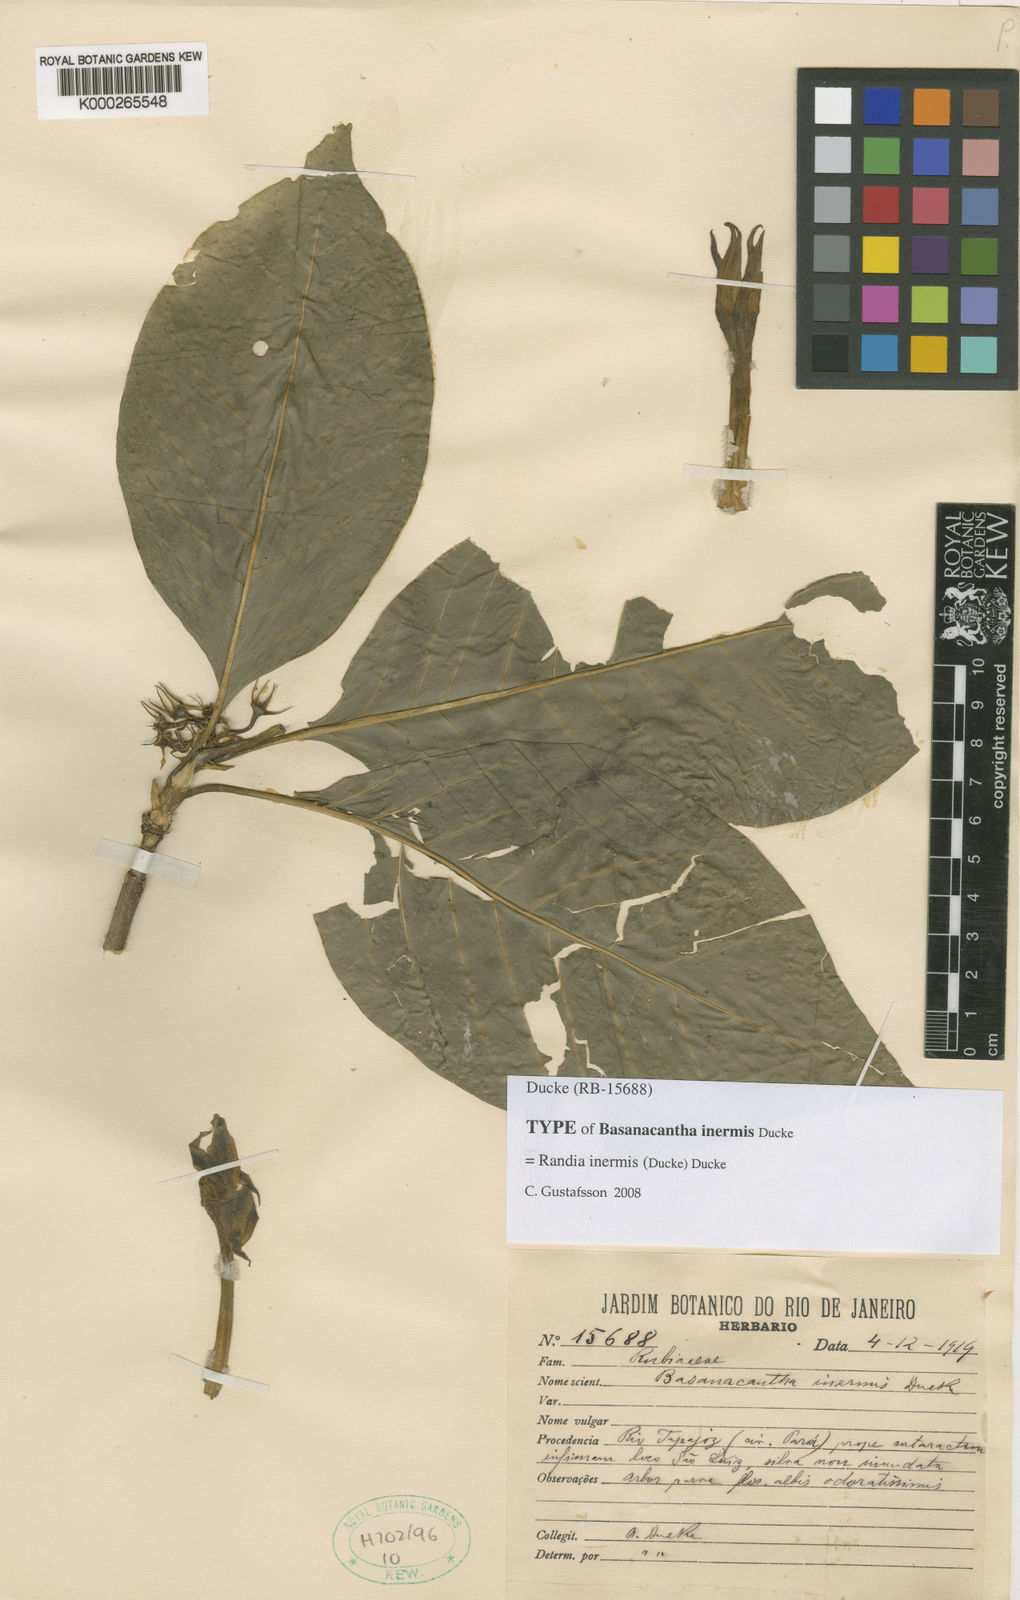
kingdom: Plantae
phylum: Tracheophyta
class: Magnoliopsida
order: Gentianales
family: Rubiaceae
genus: Randia
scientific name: Randia parana
